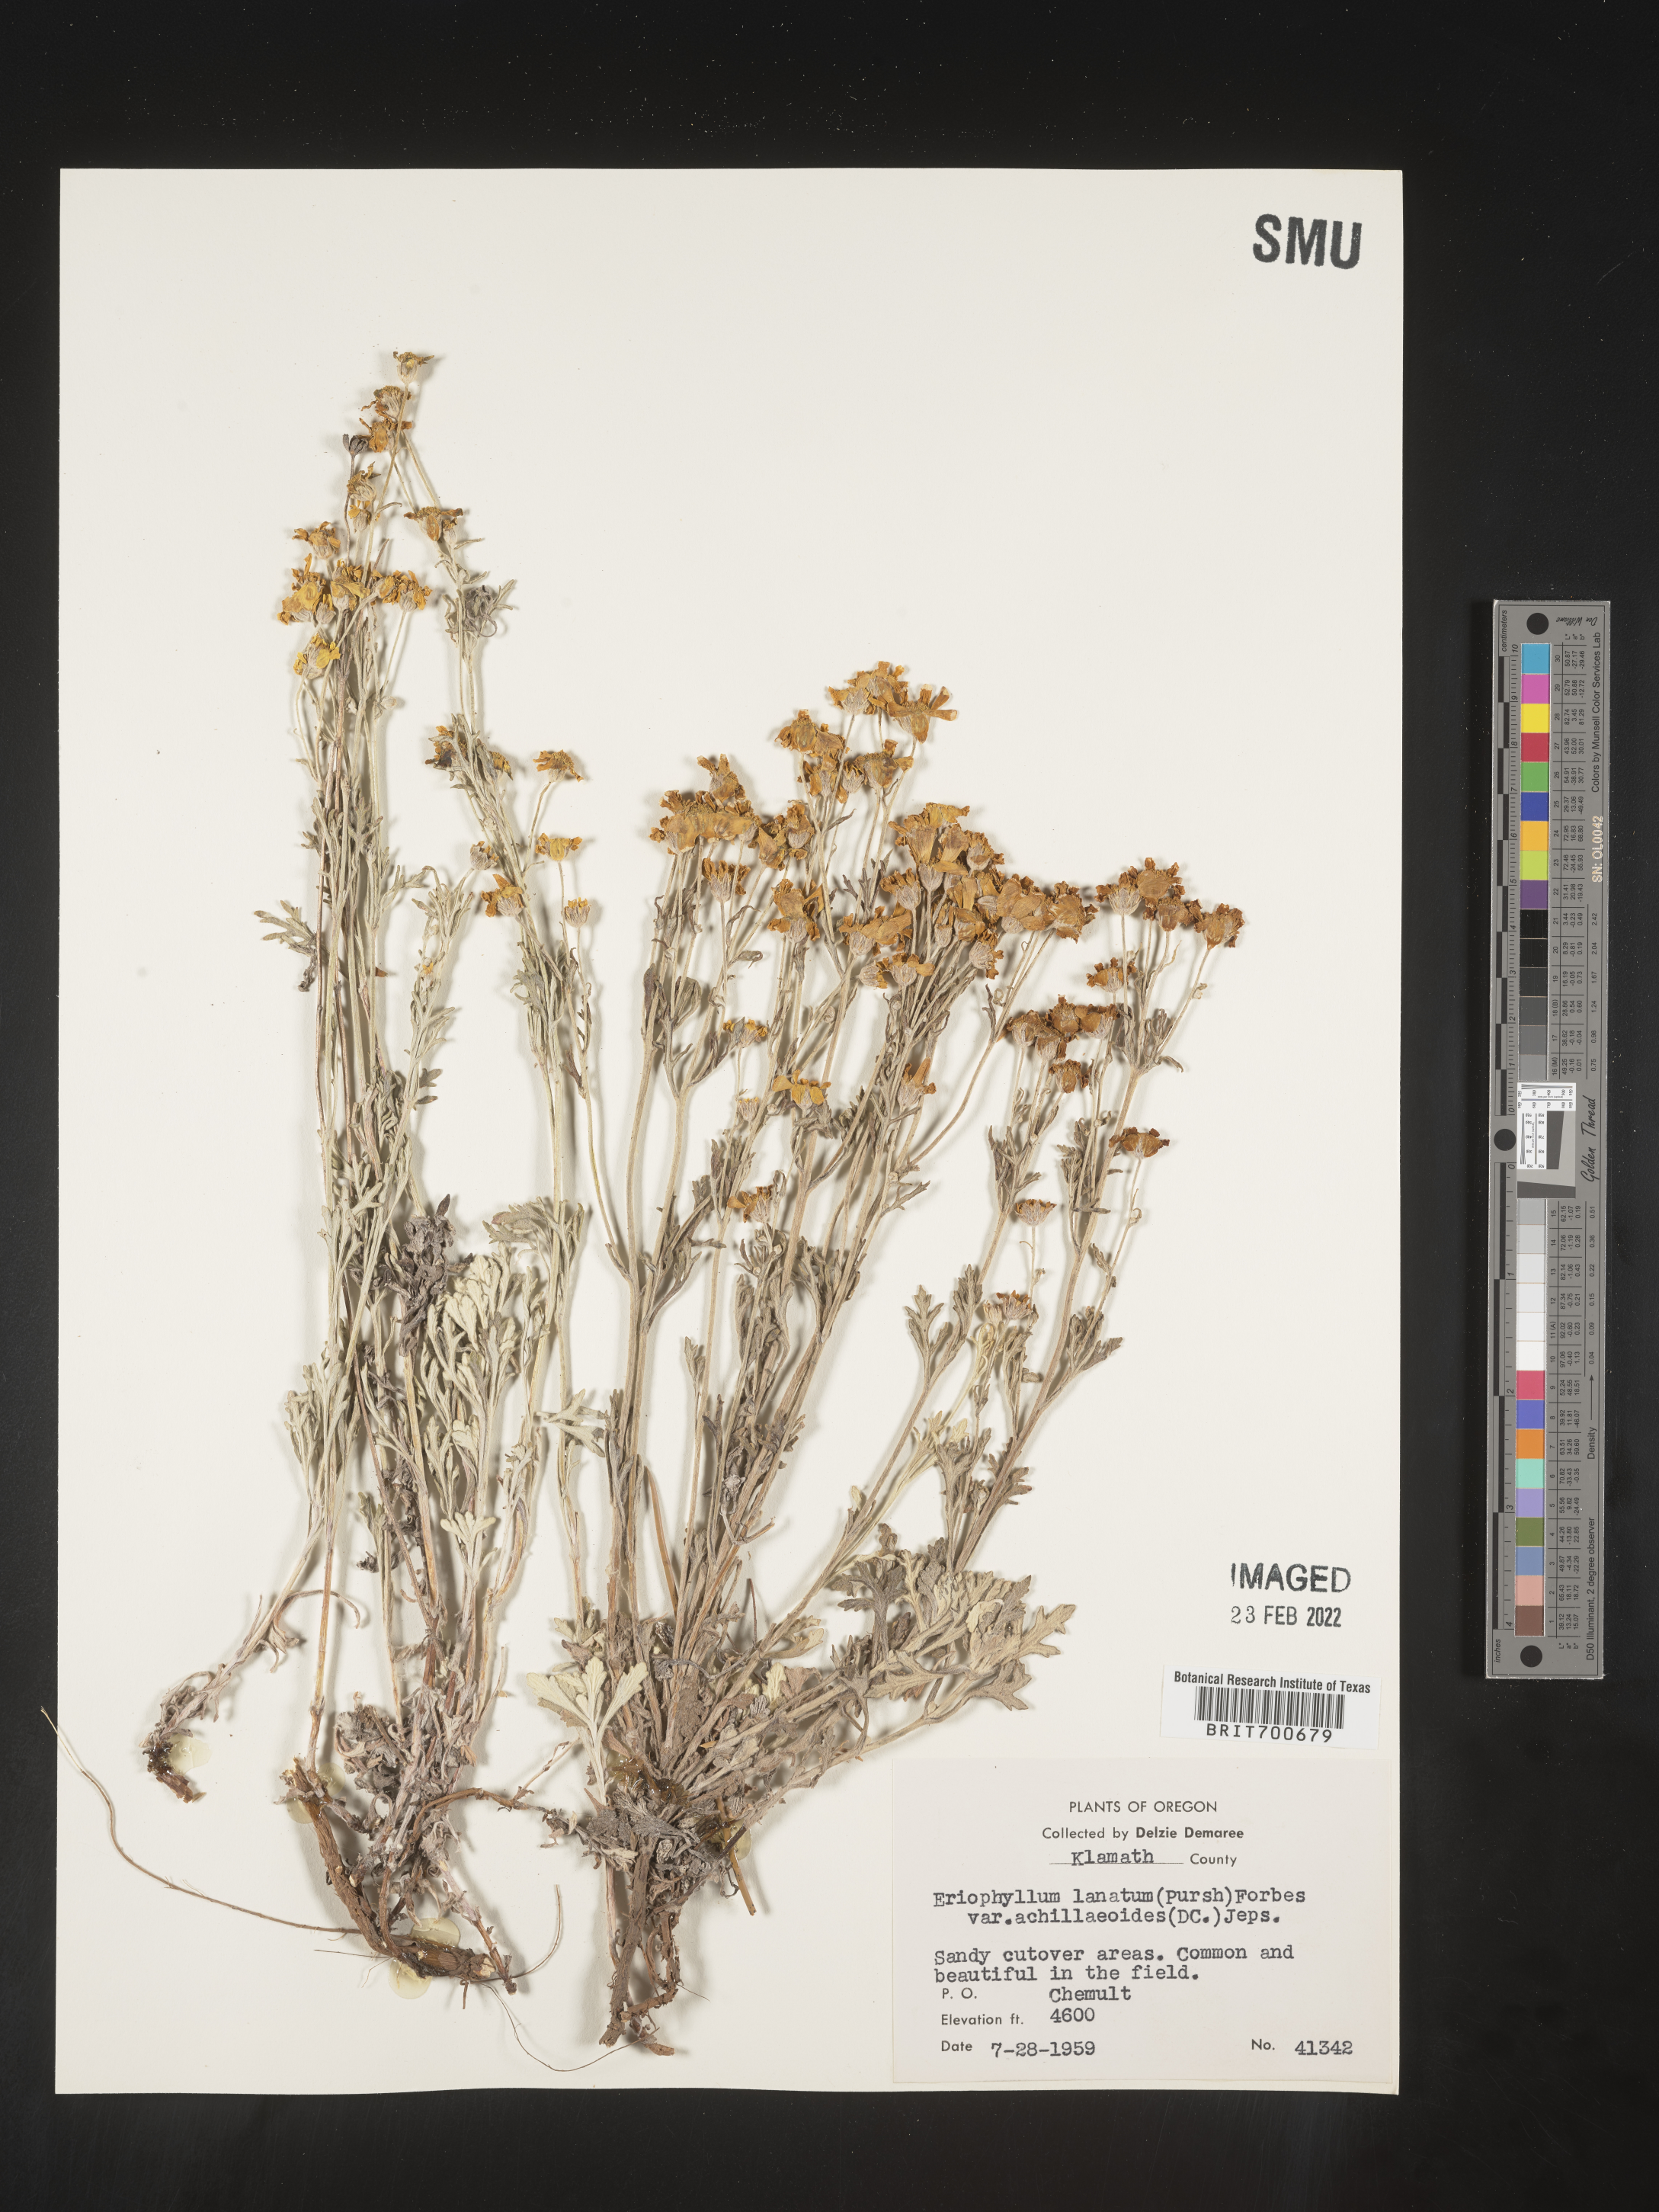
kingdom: Plantae
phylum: Tracheophyta
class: Magnoliopsida
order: Asterales
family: Asteraceae
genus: Eriophyllum
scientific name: Eriophyllum lanatum
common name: Common woolly-sunflower
